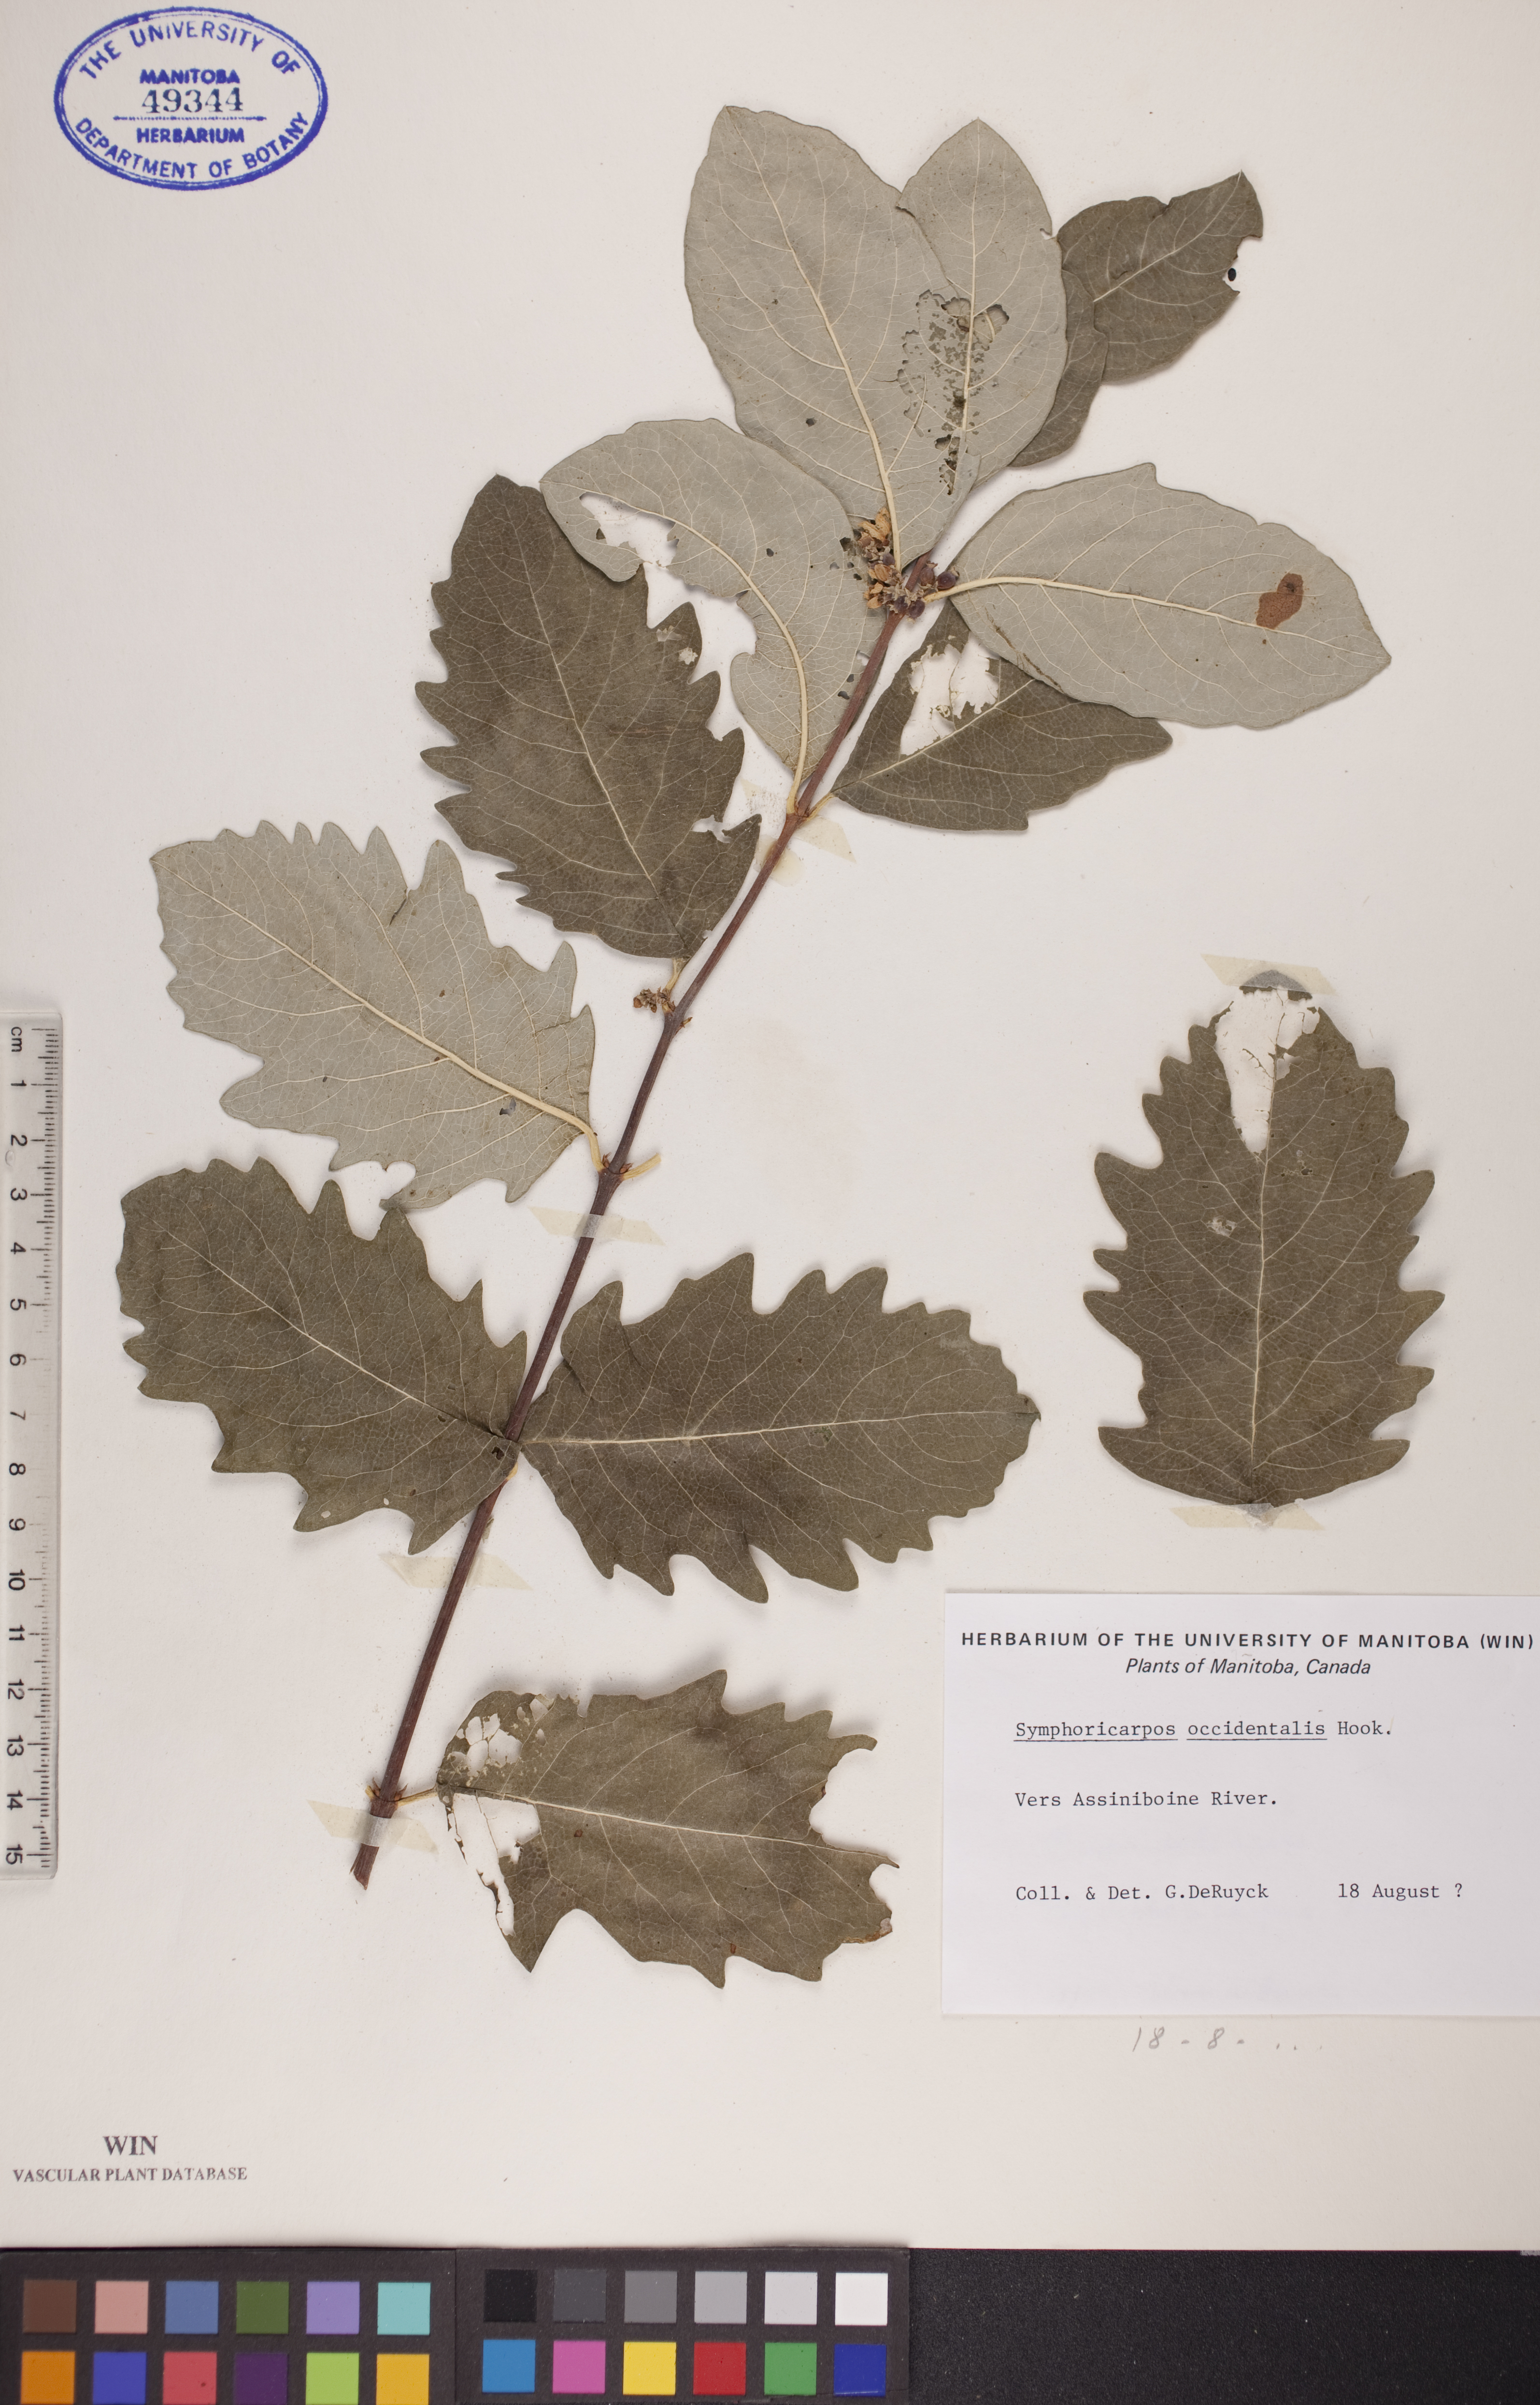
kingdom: Plantae
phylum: Tracheophyta
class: Magnoliopsida
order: Dipsacales
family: Caprifoliaceae
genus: Symphoricarpos
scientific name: Symphoricarpos occidentalis
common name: Wolfberry
